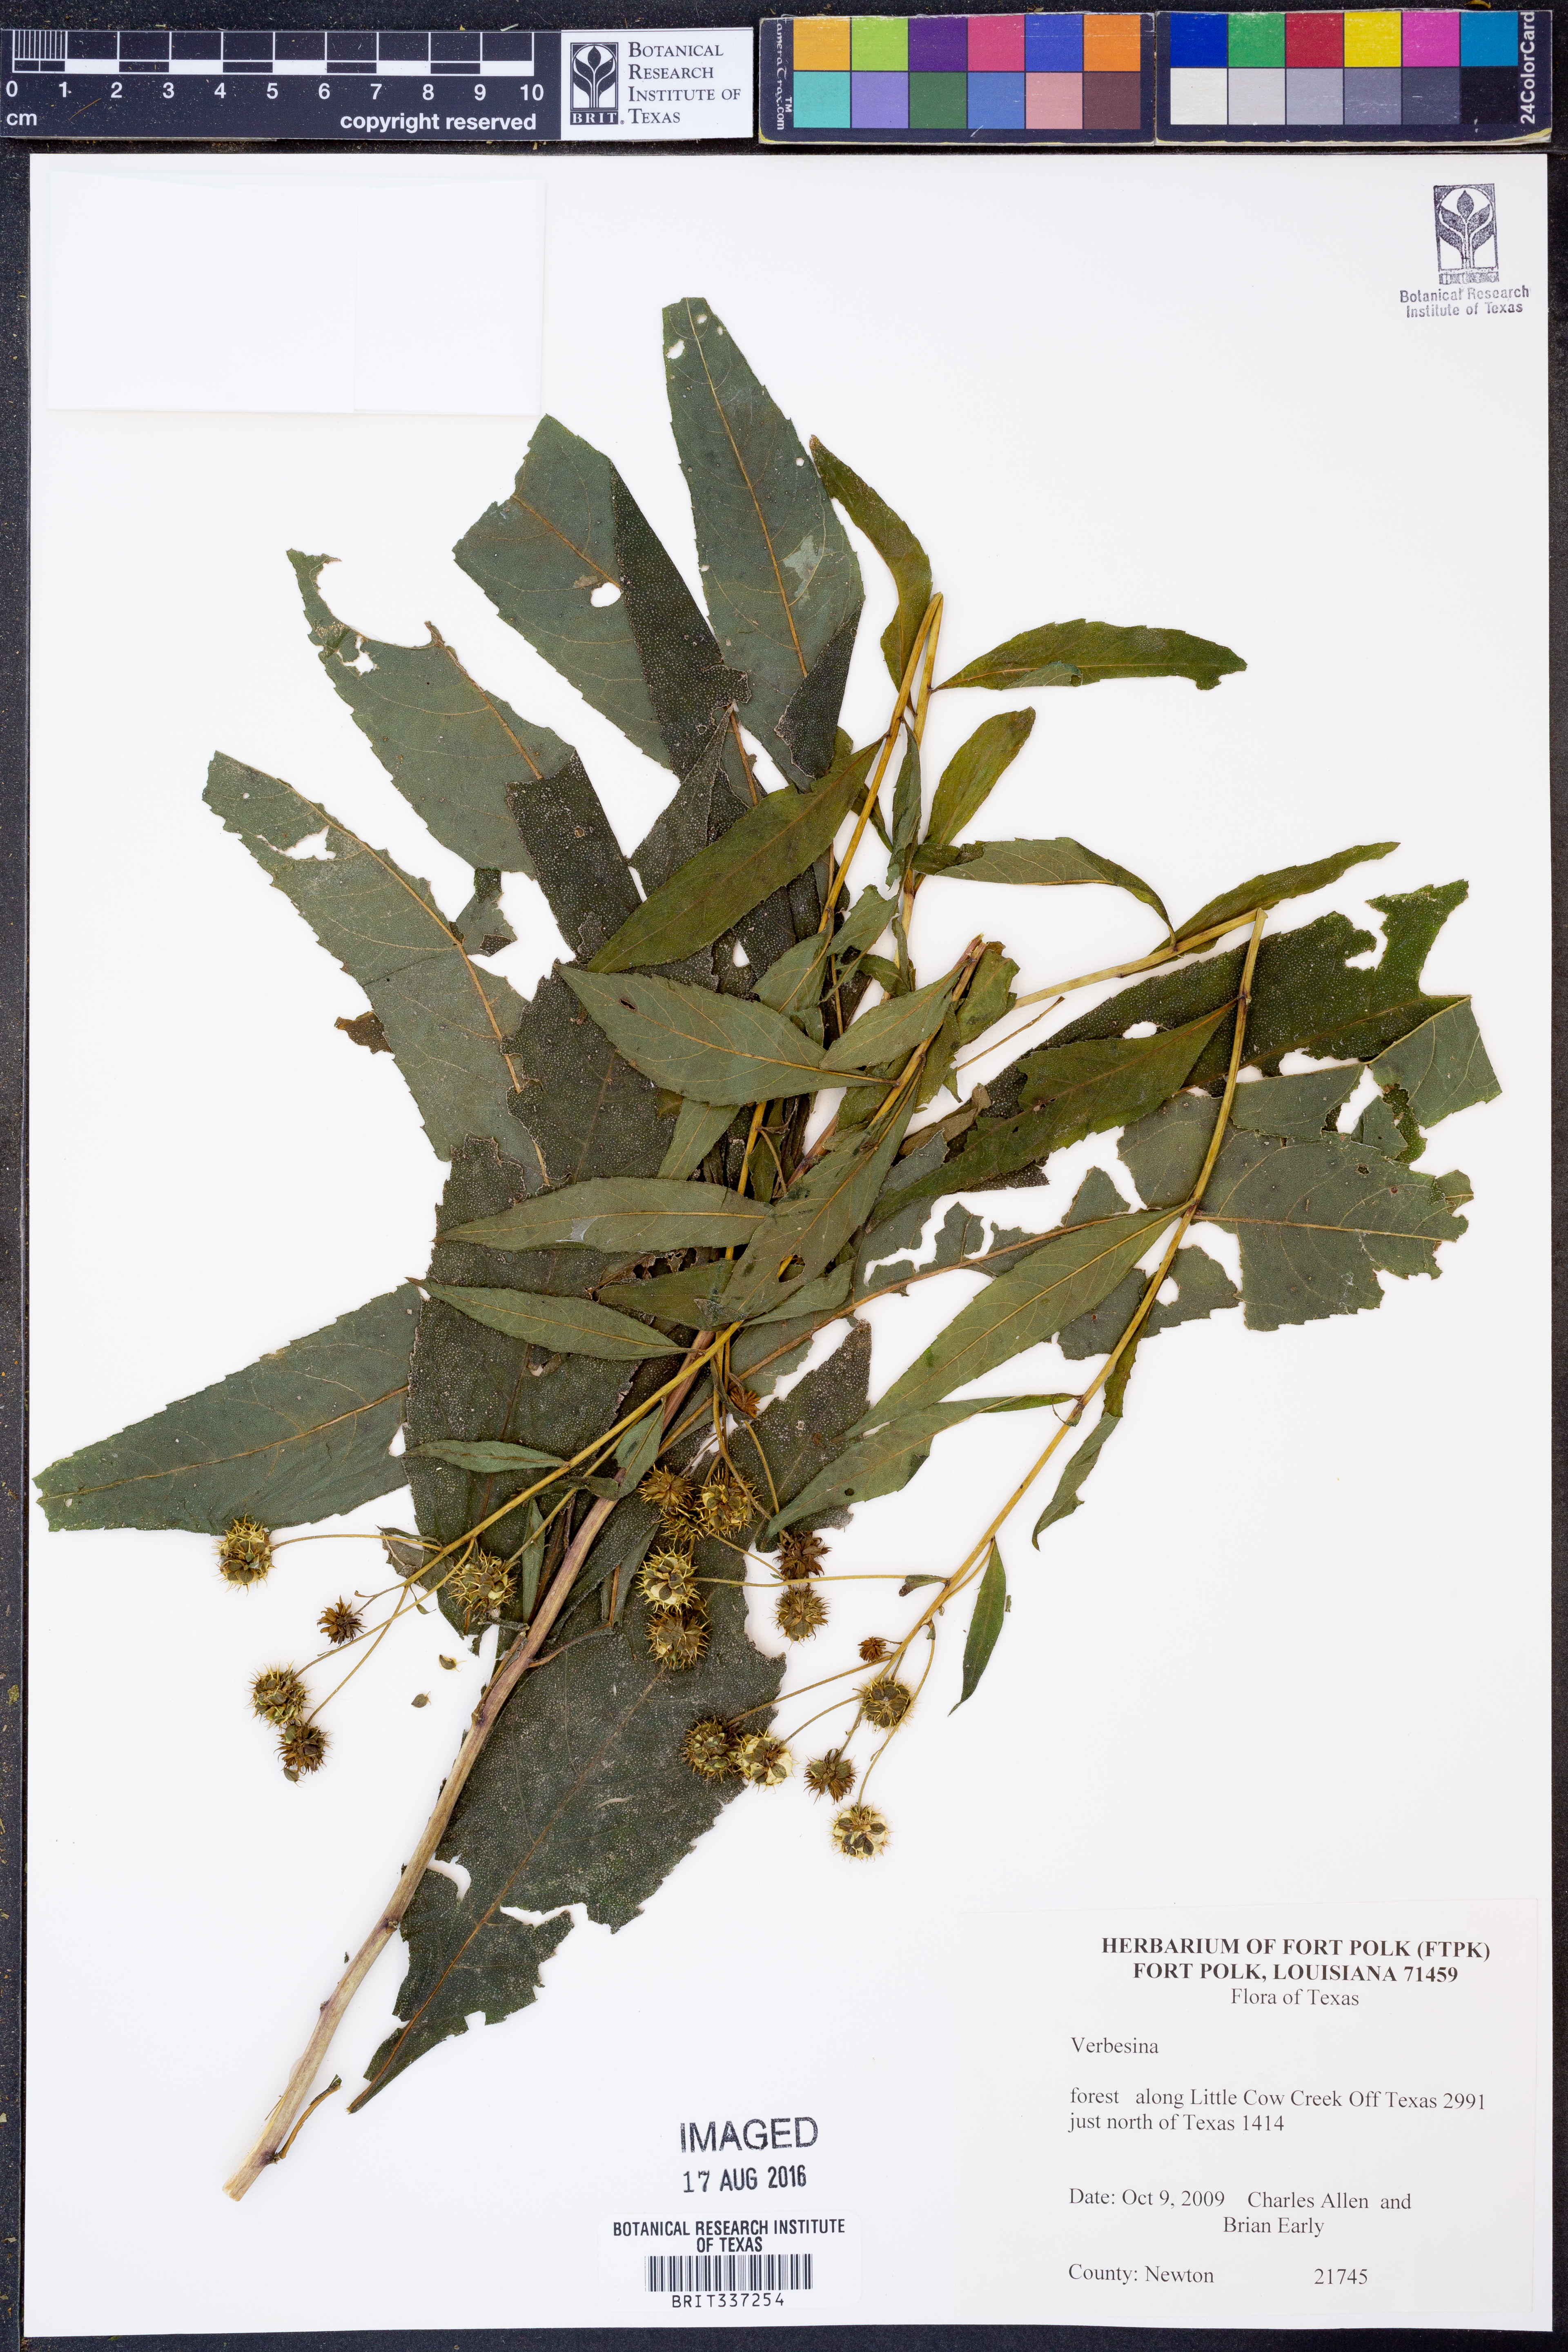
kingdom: Plantae
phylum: Tracheophyta
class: Magnoliopsida
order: Asterales
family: Asteraceae
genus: Verbesina
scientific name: Verbesina
